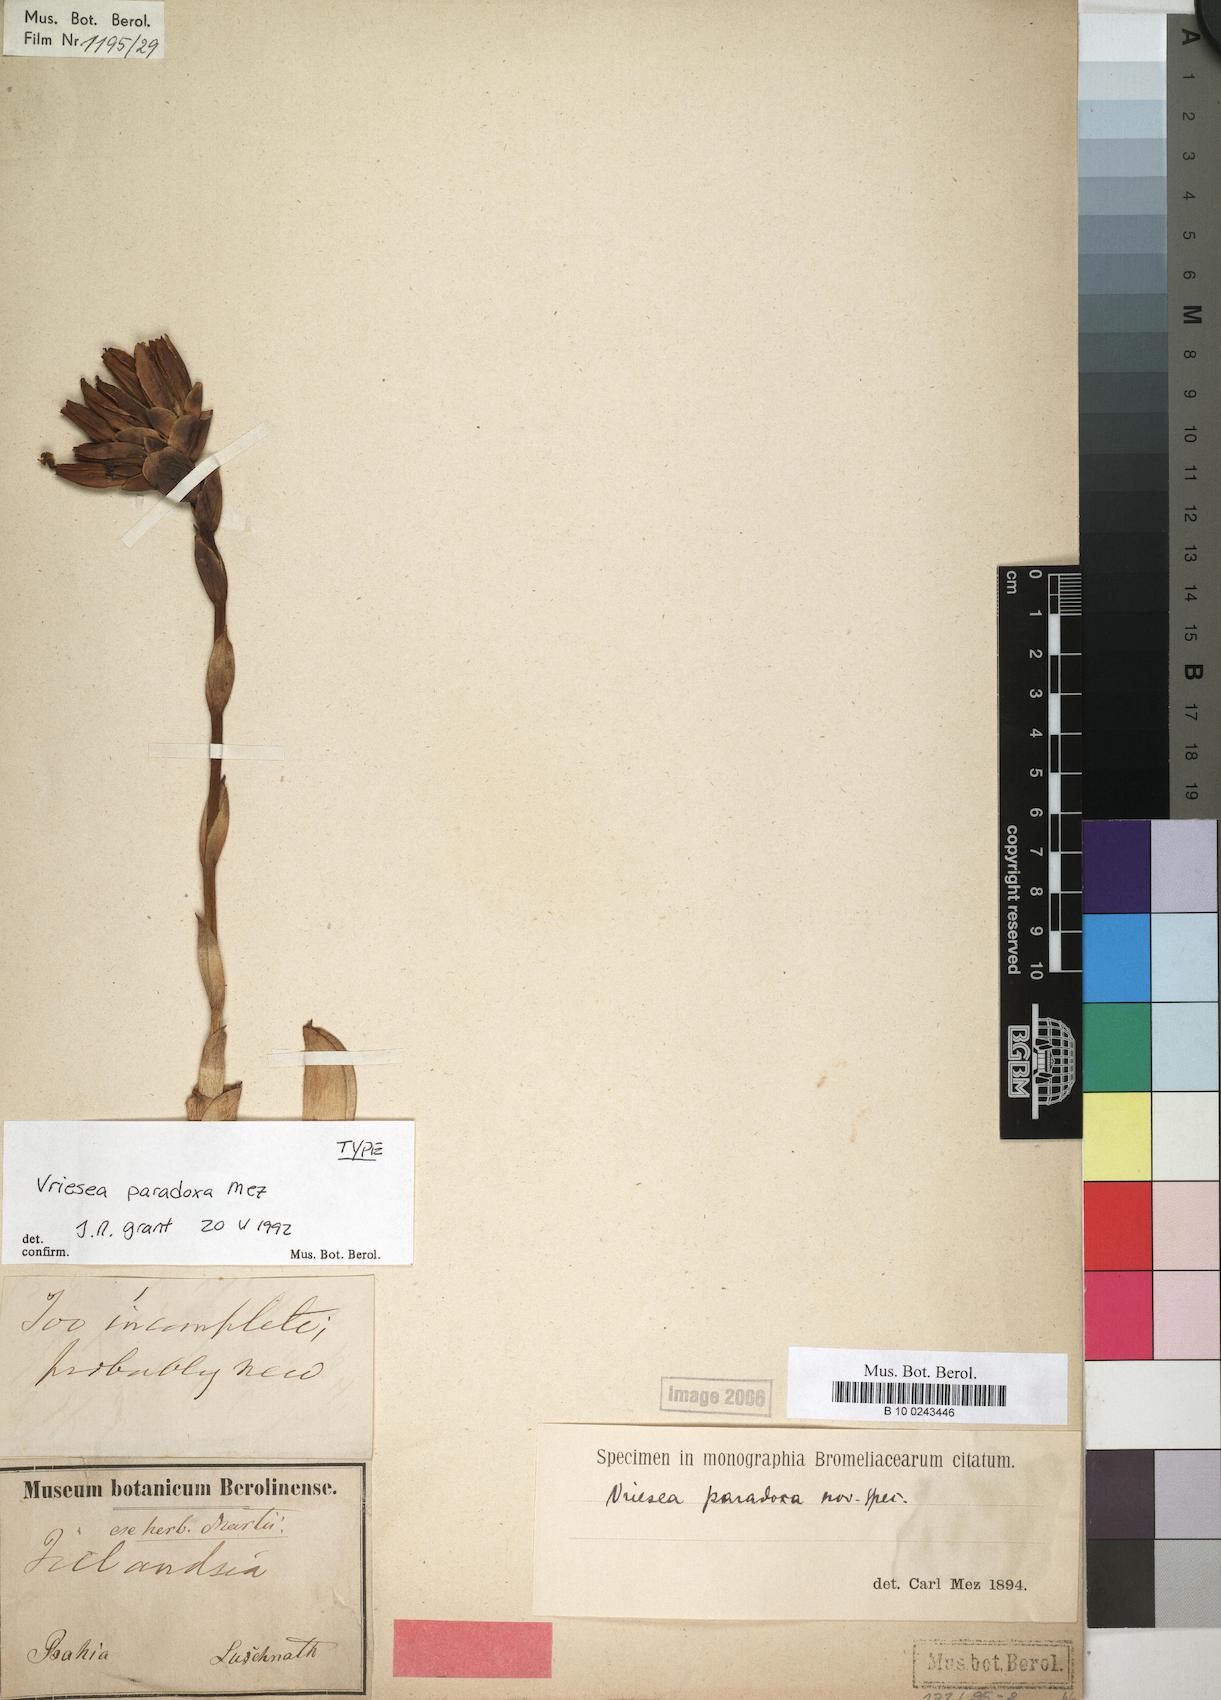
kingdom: Plantae
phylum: Tracheophyta
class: Liliopsida
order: Poales
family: Bromeliaceae
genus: Vriesea
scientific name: Vriesea paradoxa
